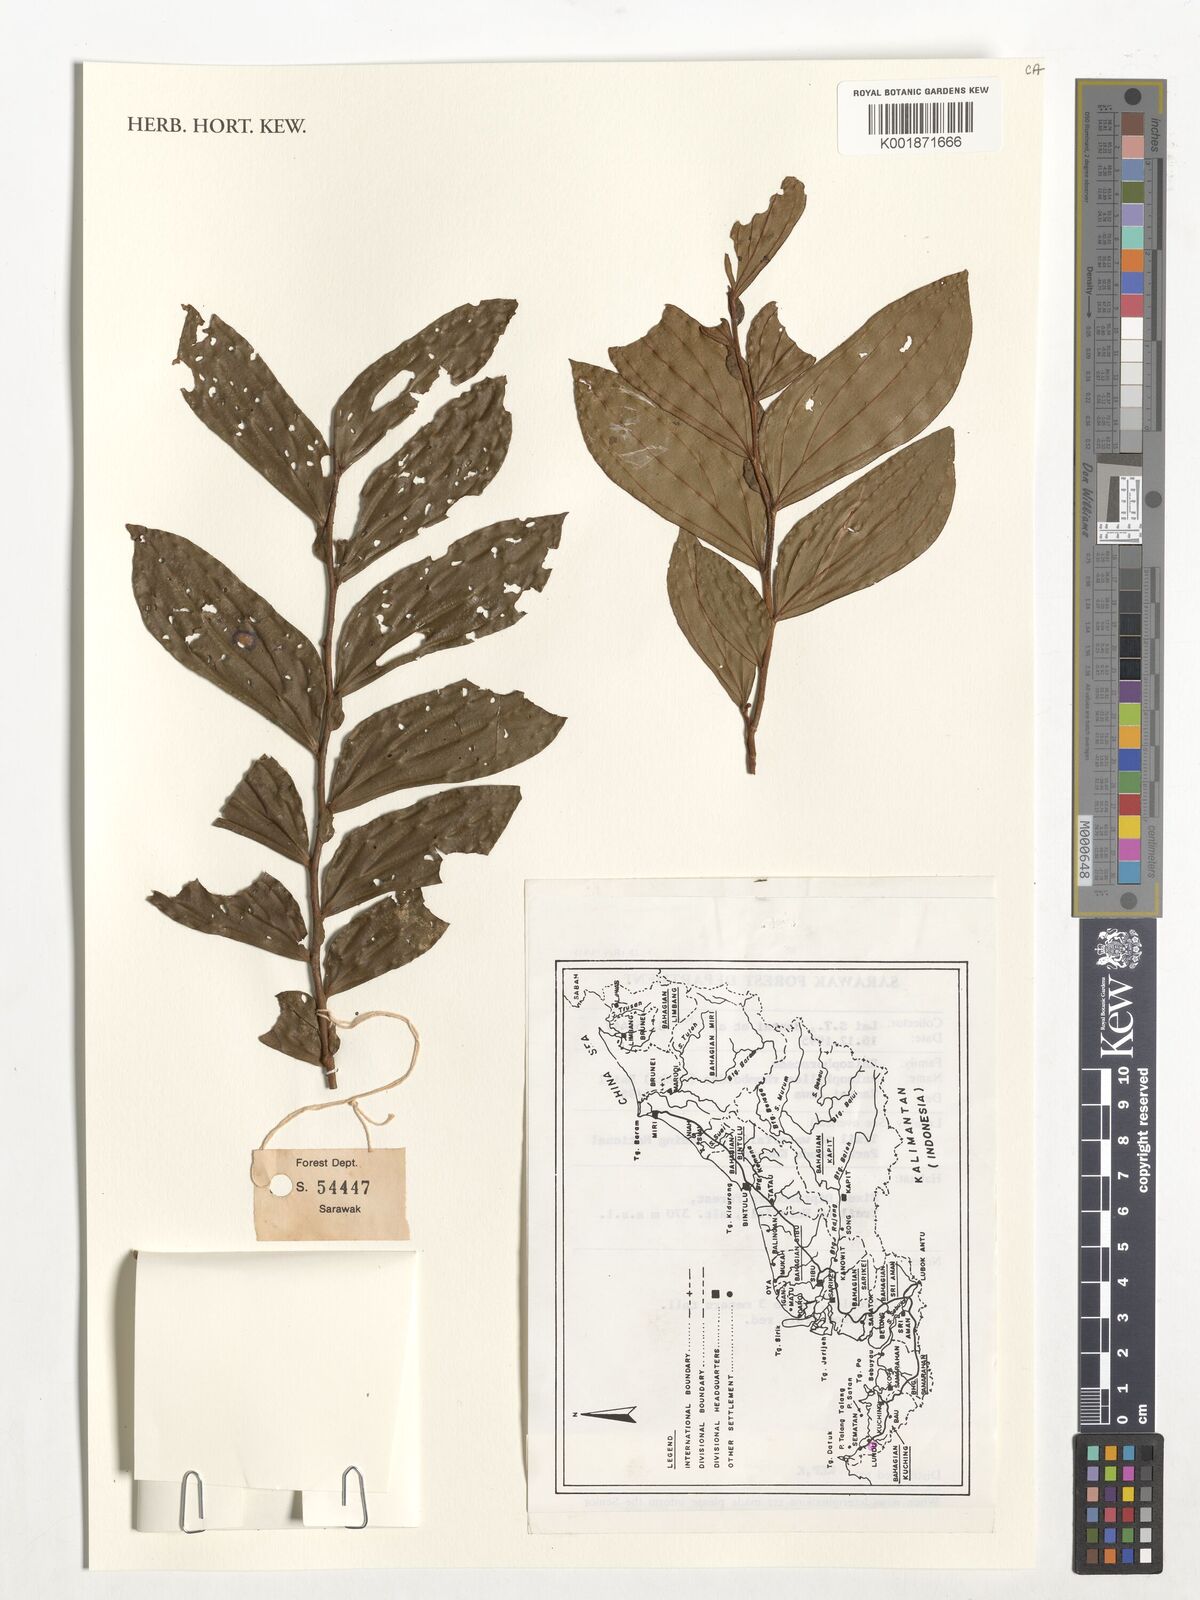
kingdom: Plantae
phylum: Tracheophyta
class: Magnoliopsida
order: Malpighiales
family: Rhizophoraceae
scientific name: Rhizophoraceae
